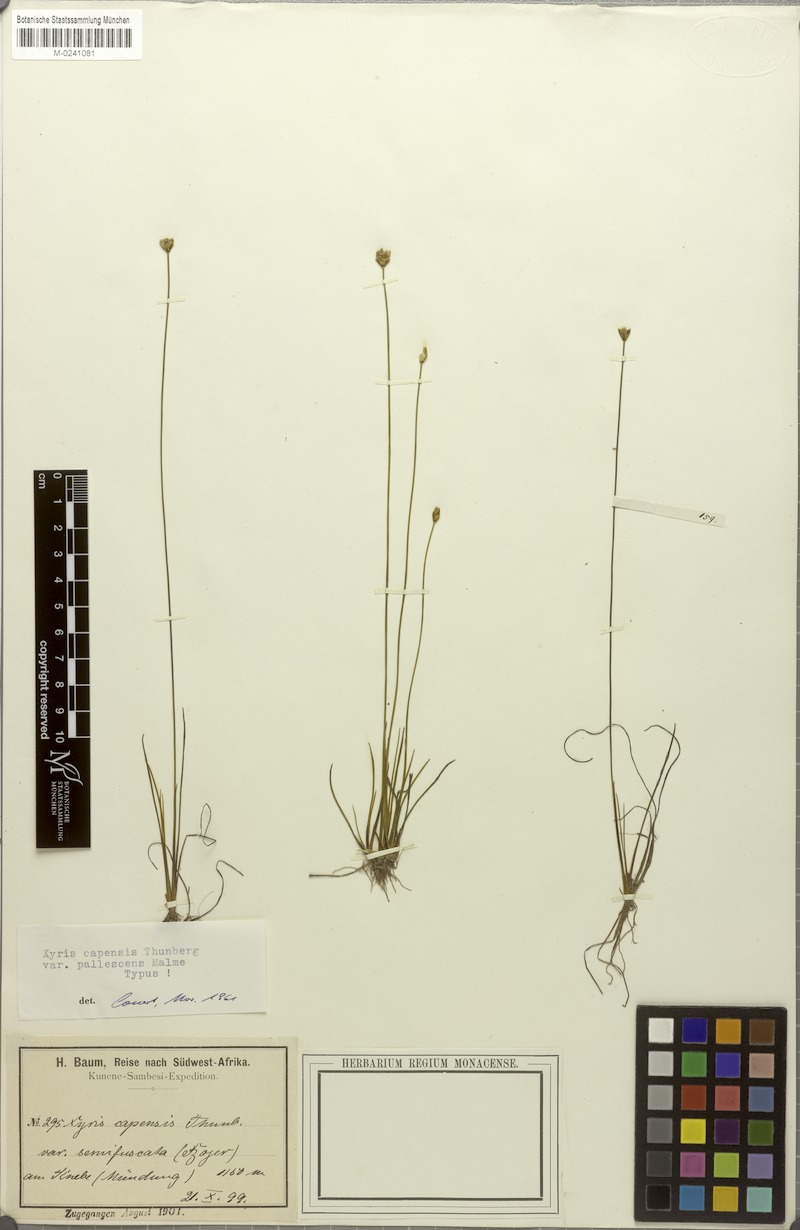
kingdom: Plantae
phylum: Tracheophyta
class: Liliopsida
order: Poales
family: Xyridaceae
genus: Xyris
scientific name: Xyris capensis
